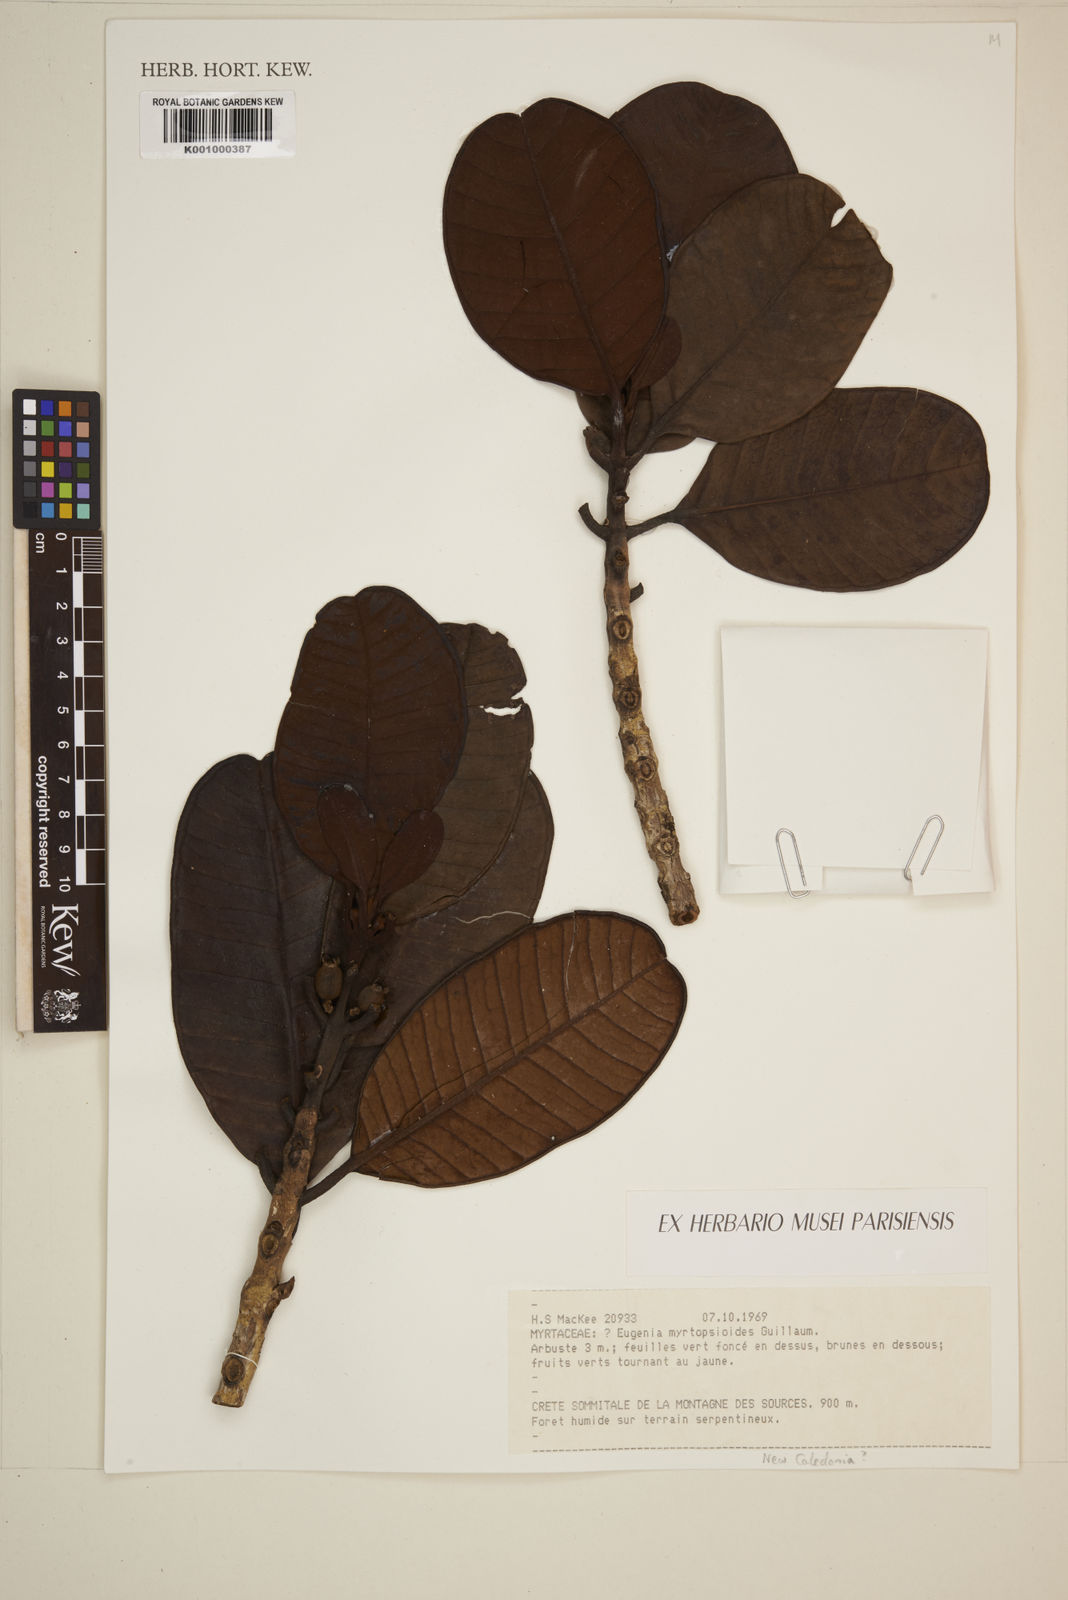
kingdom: Plantae
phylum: Tracheophyta
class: Magnoliopsida
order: Myrtales
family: Myrtaceae
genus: Kanakomyrtus
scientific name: Kanakomyrtus myrtopsidoides
